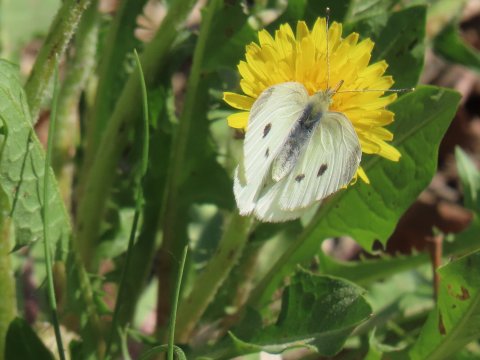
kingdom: Animalia
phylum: Arthropoda
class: Insecta
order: Lepidoptera
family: Pieridae
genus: Pieris
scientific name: Pieris rapae
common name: Cabbage White
